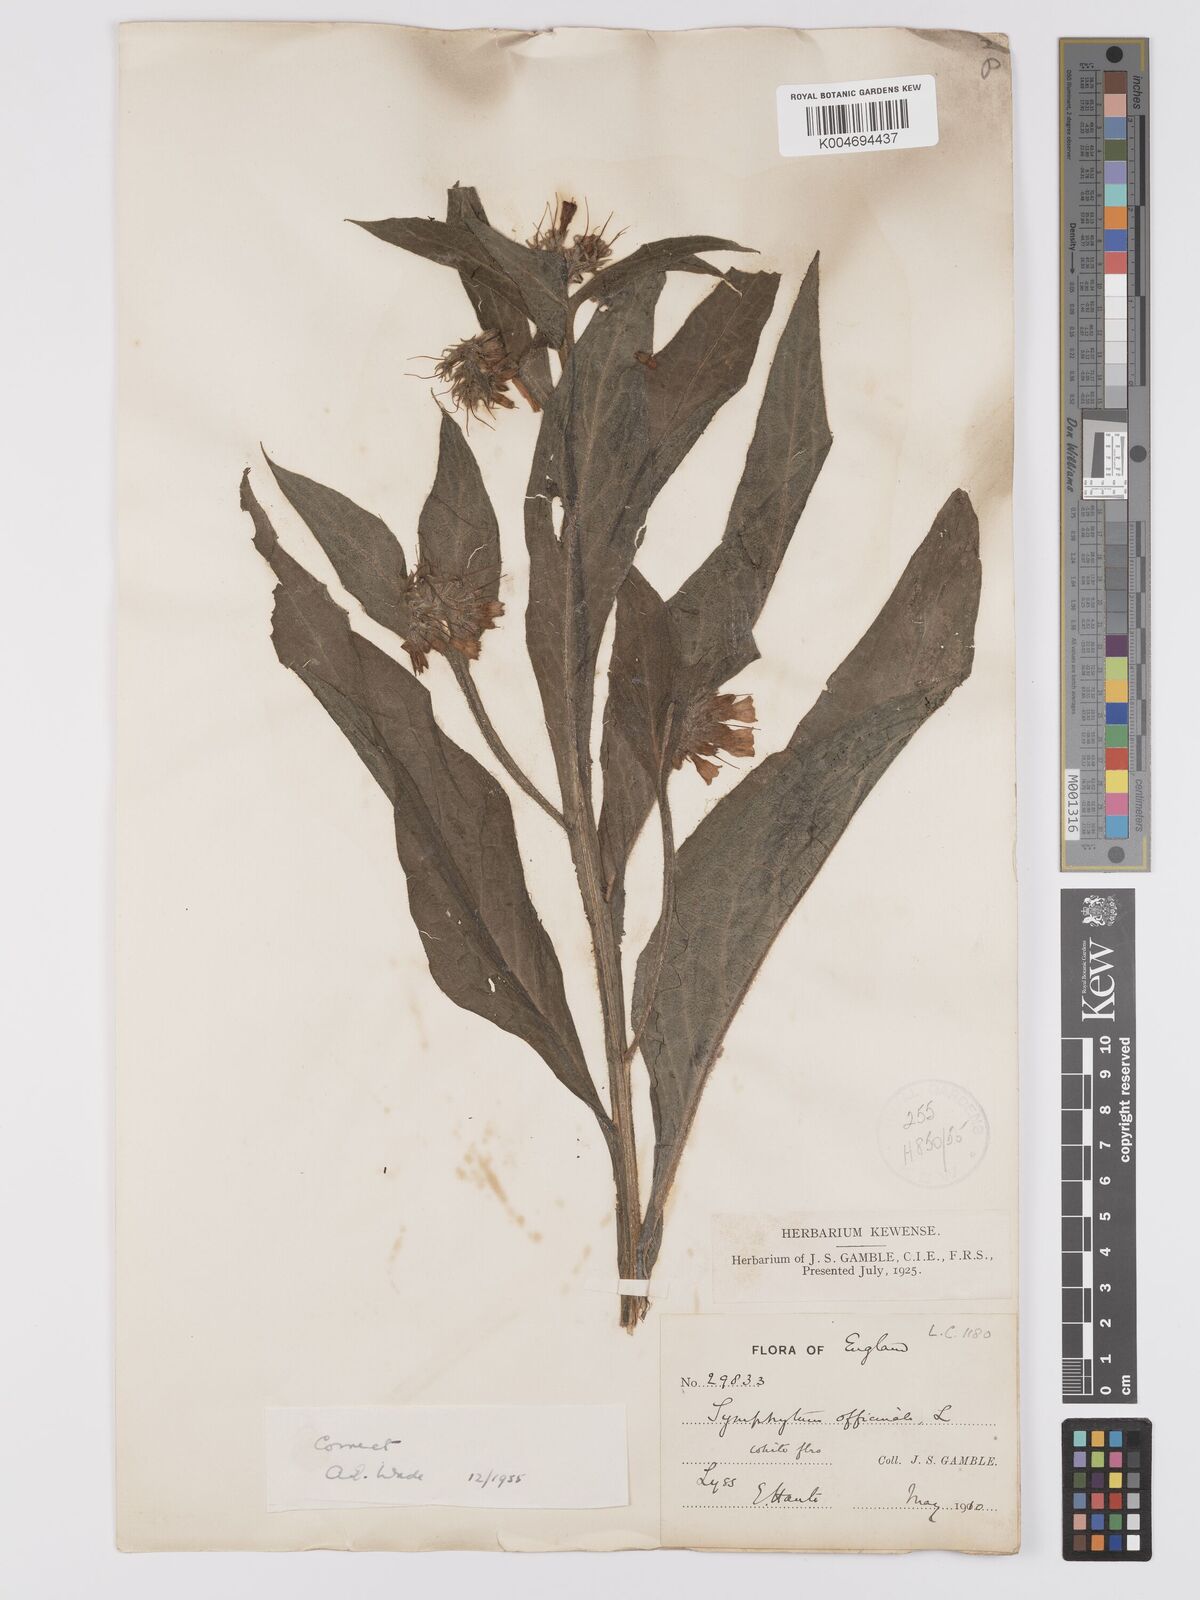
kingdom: Plantae
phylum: Tracheophyta
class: Magnoliopsida
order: Boraginales
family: Boraginaceae
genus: Symphytum
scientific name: Symphytum officinale
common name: Common comfrey
